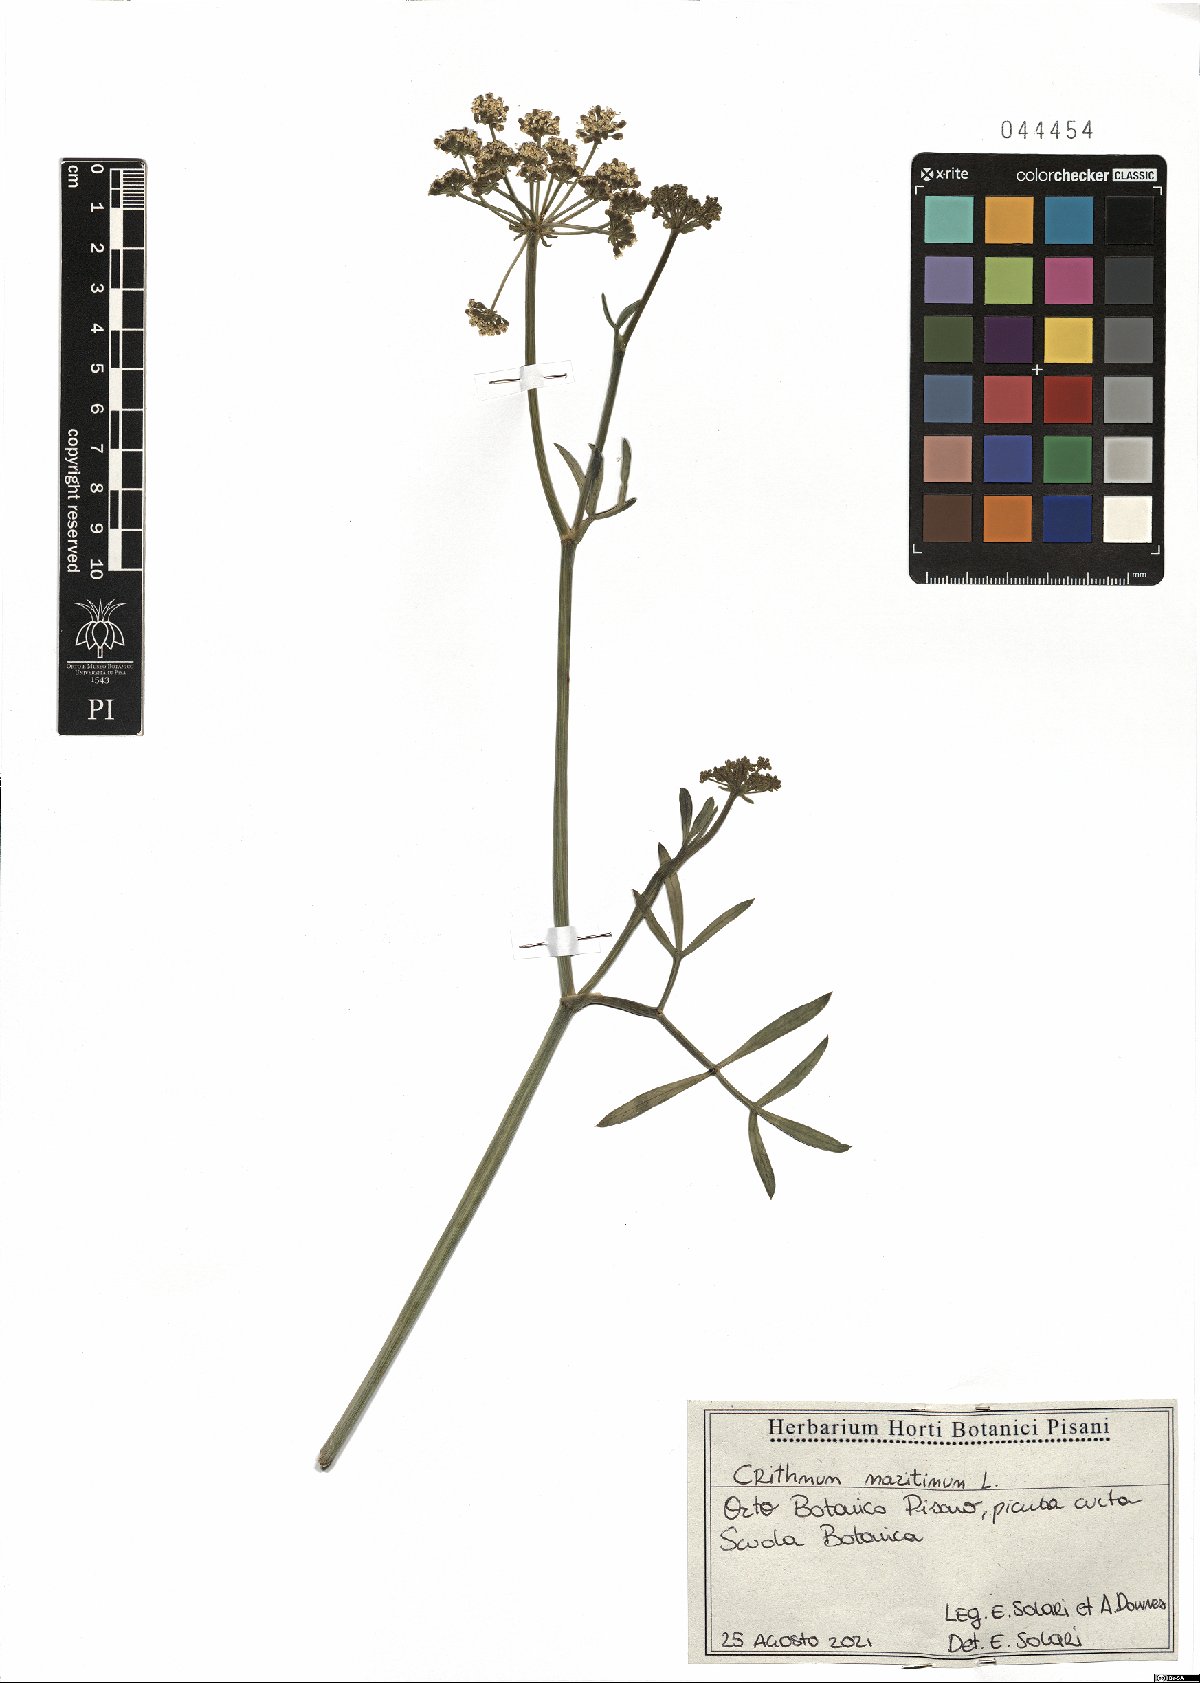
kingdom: Plantae
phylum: Tracheophyta
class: Magnoliopsida
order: Apiales
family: Apiaceae
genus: Crithmum
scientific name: Crithmum maritimum
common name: Rock samphire
